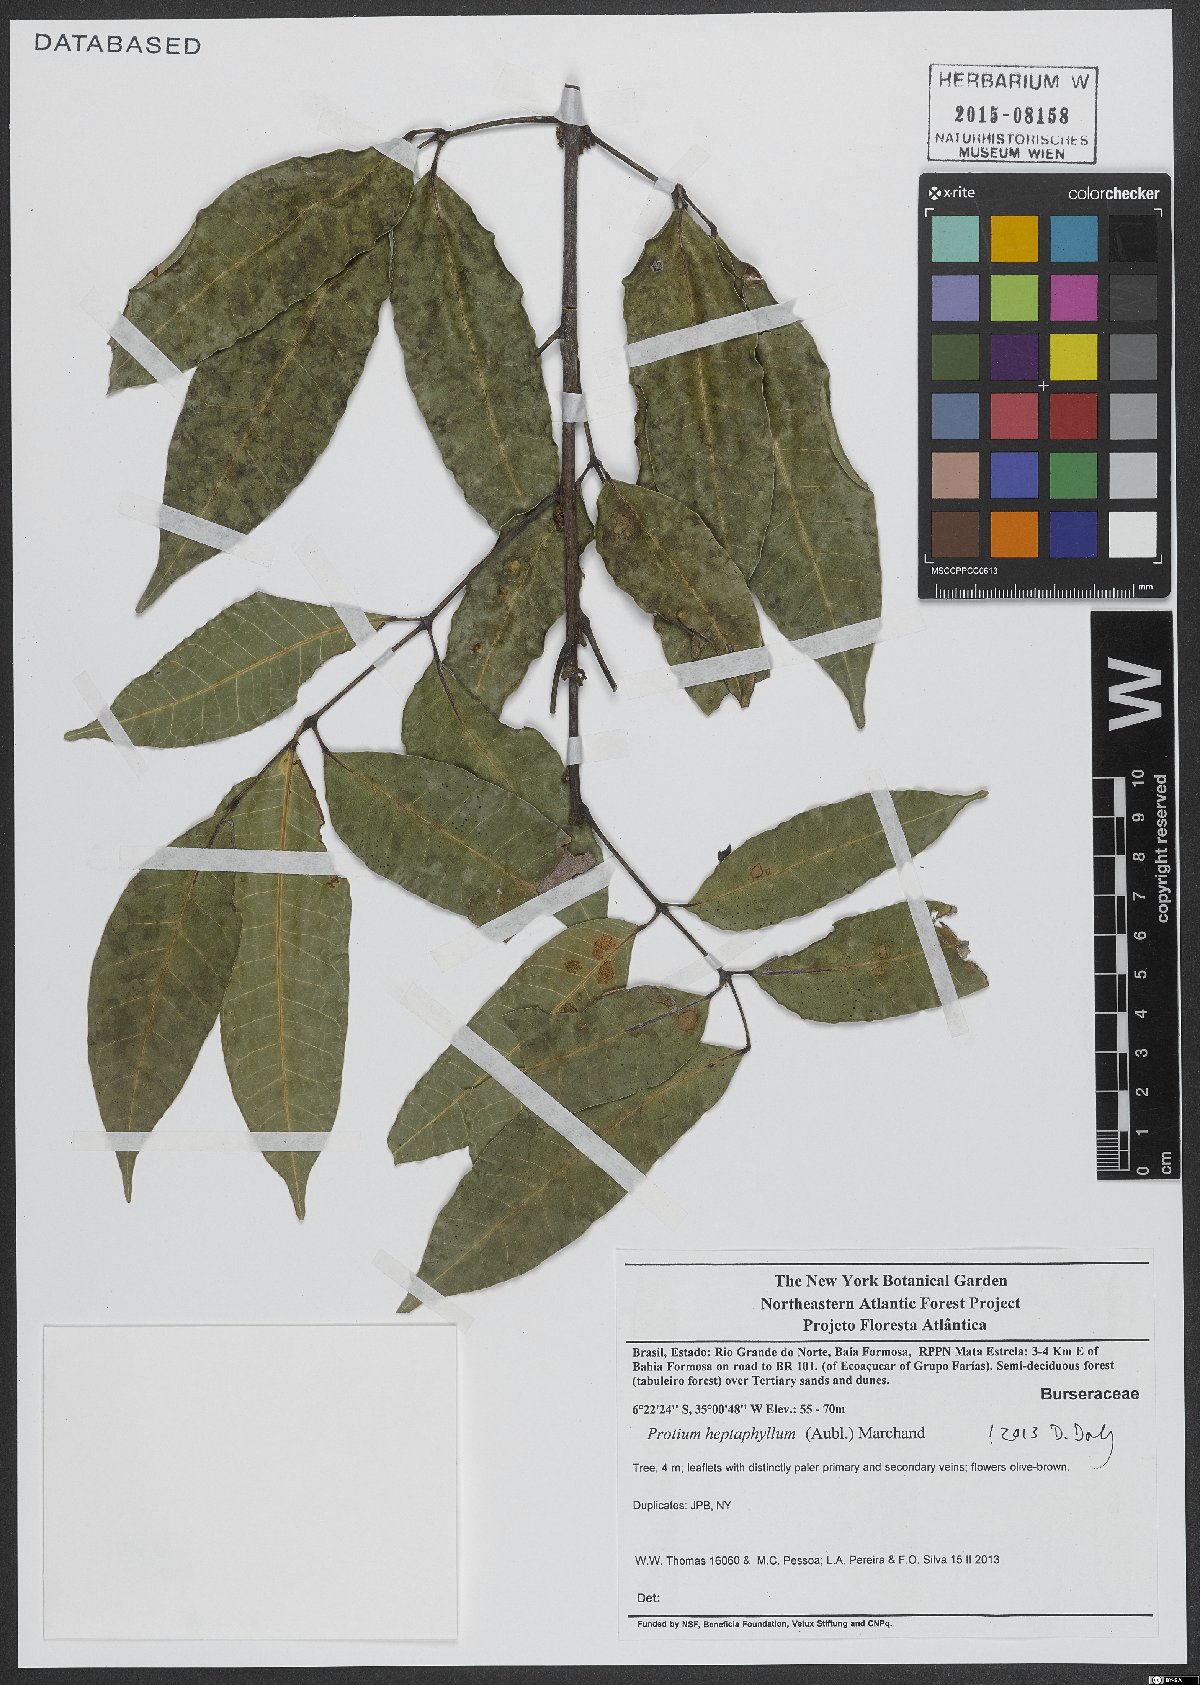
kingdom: Plantae
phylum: Tracheophyta
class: Magnoliopsida
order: Sapindales
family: Burseraceae
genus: Protium
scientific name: Protium heptaphyllum
